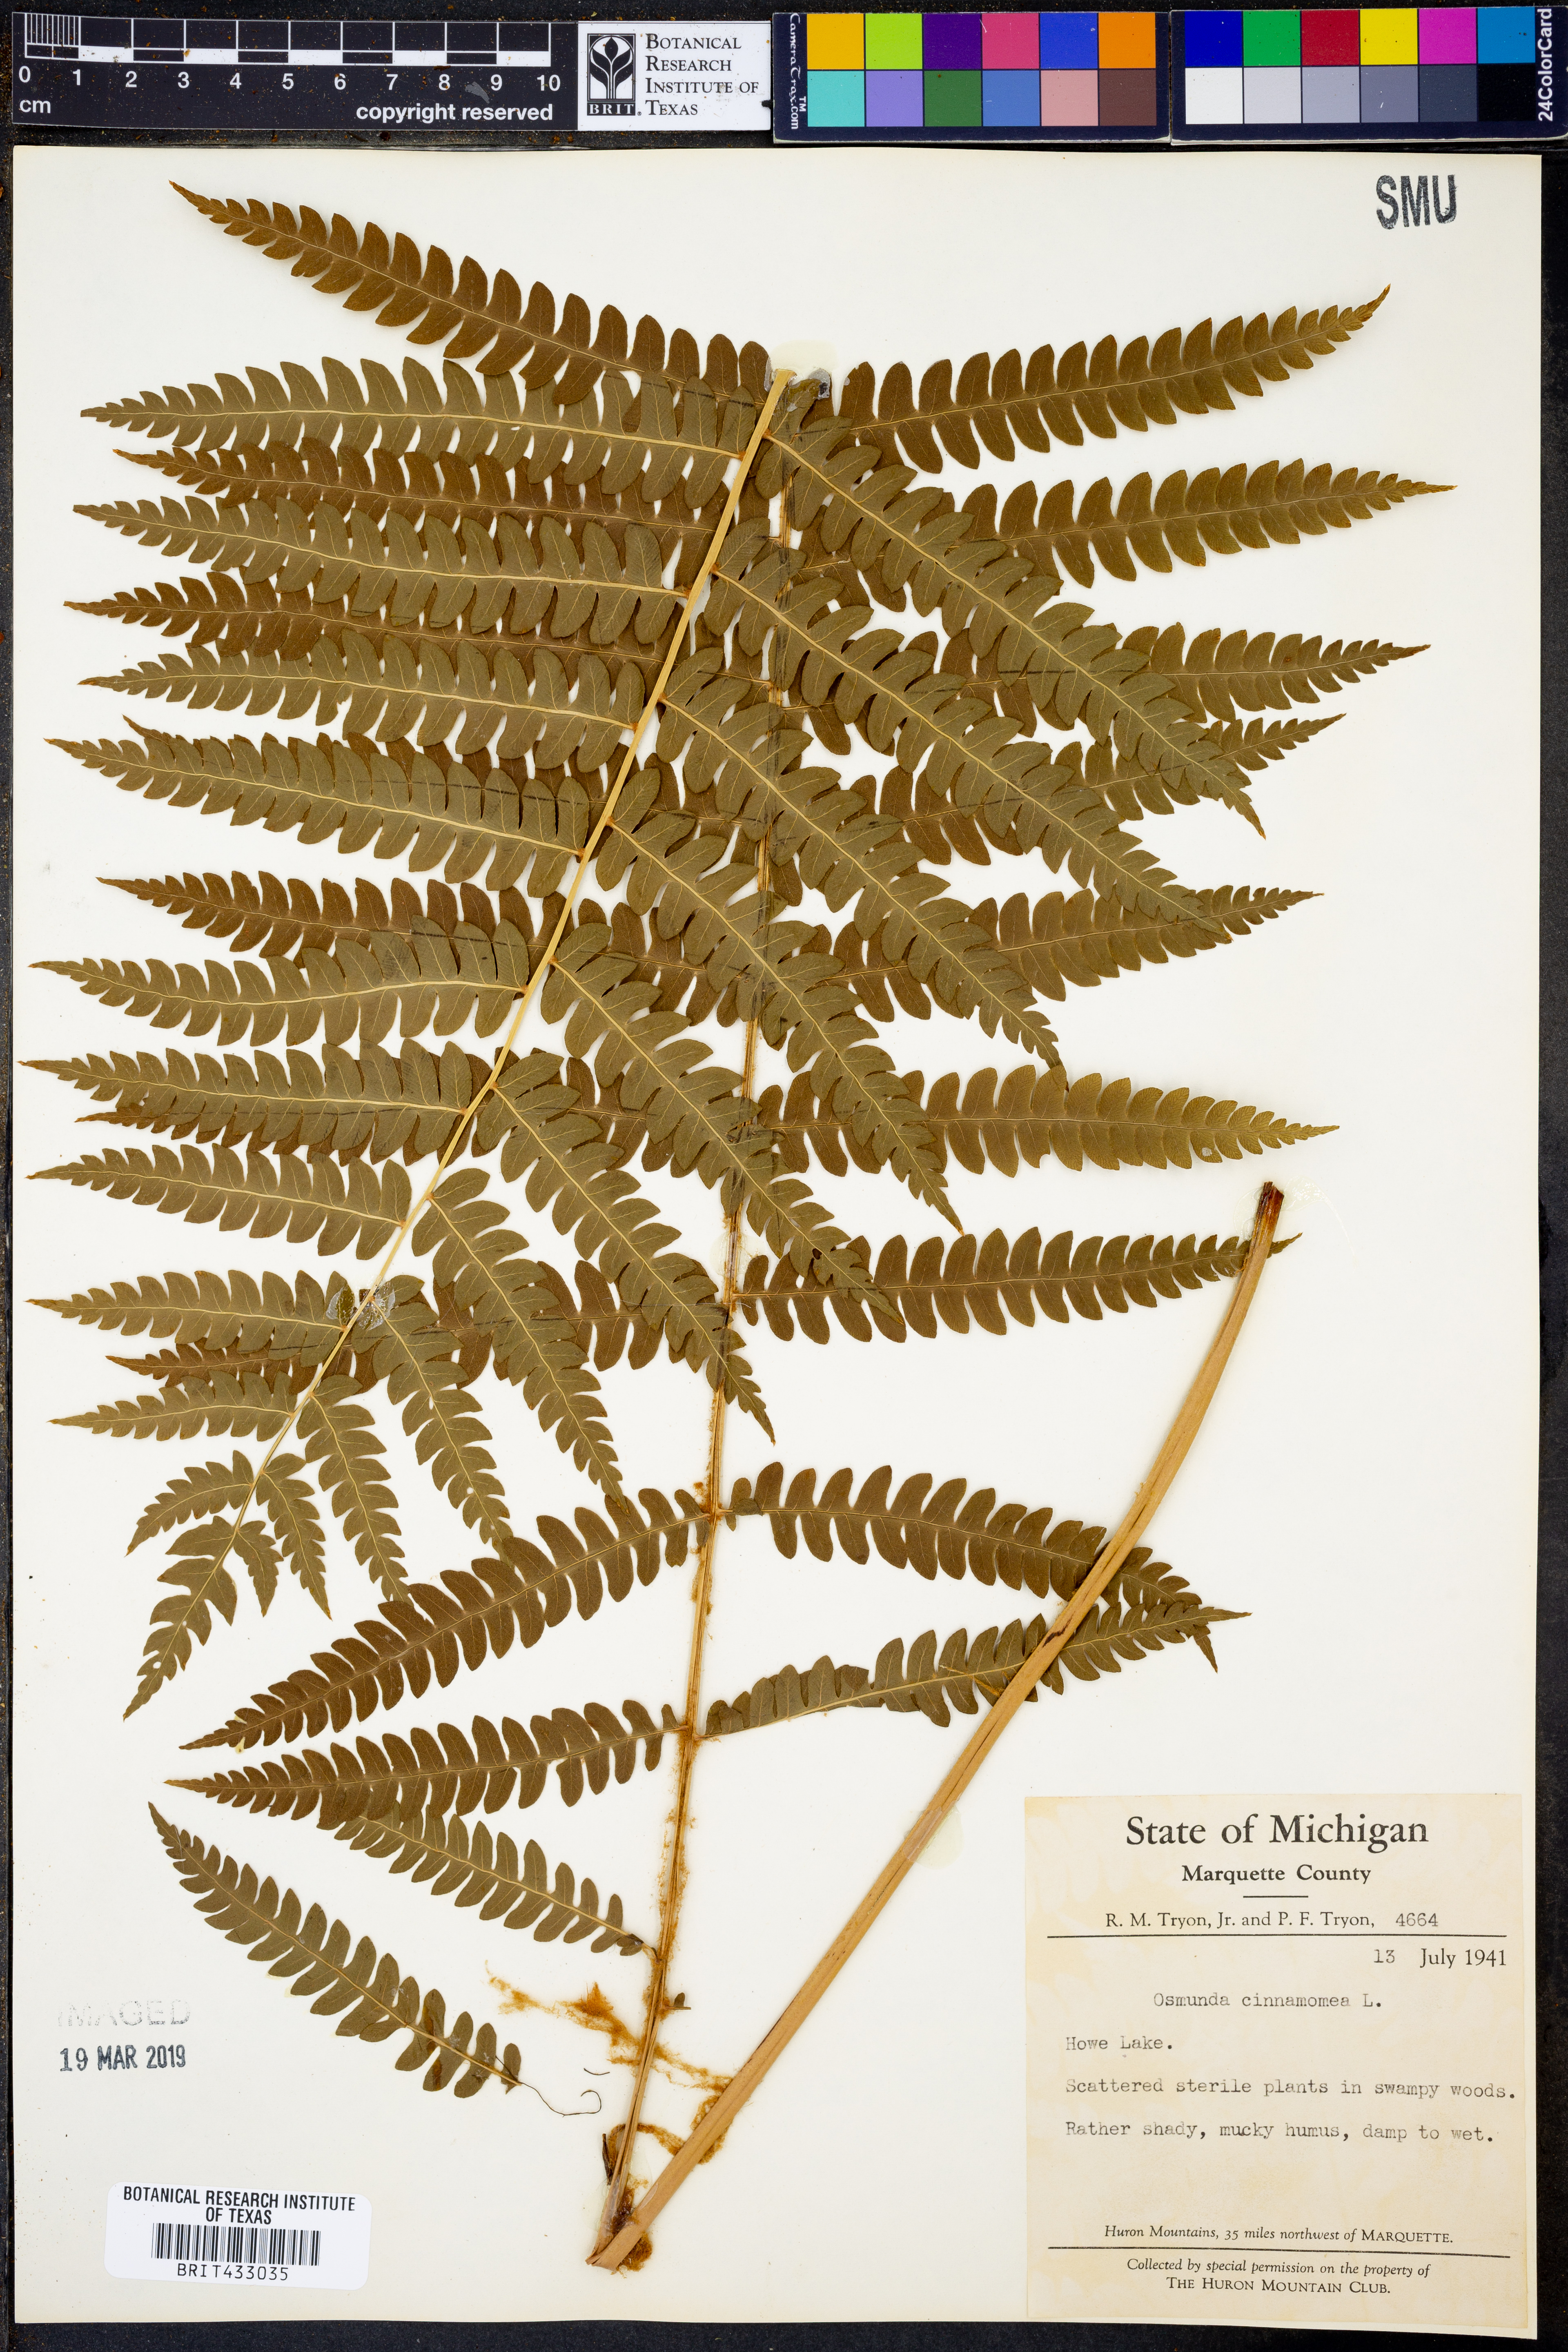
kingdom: Plantae
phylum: Tracheophyta
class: Polypodiopsida
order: Osmundales
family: Osmundaceae
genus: Osmundastrum
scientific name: Osmundastrum cinnamomeum
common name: Cinnamon fern
